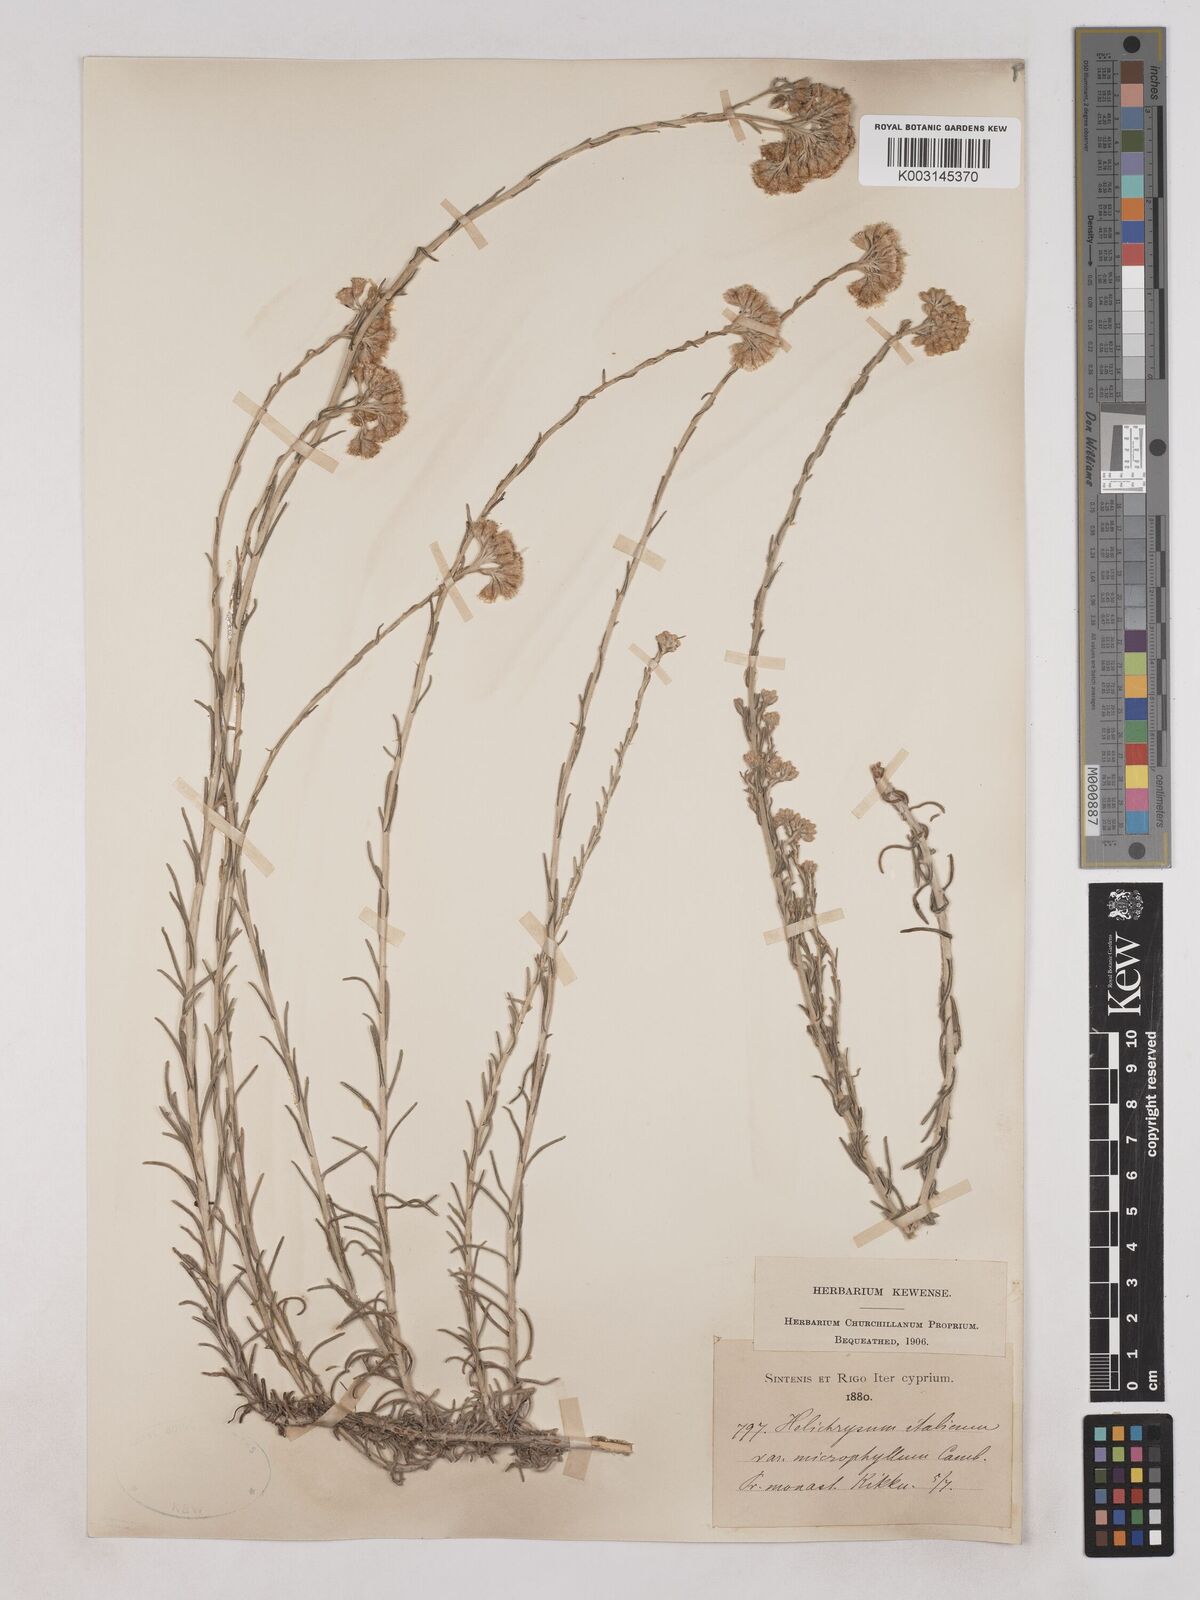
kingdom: Plantae
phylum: Tracheophyta
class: Magnoliopsida
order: Asterales
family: Asteraceae
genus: Helichrysum
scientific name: Helichrysum italicum
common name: Curryplant
